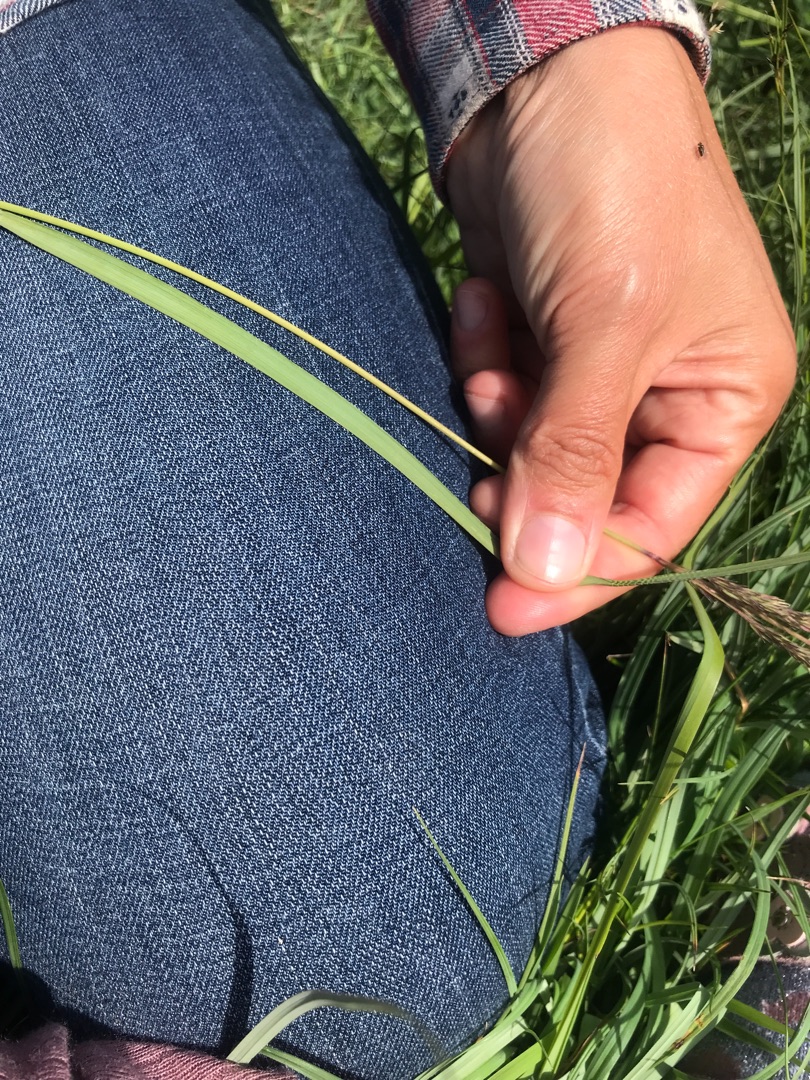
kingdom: Plantae
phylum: Tracheophyta
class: Liliopsida
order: Poales
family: Poaceae
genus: Calamagrostis
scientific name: Calamagrostis epigejos
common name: Bjerg-rørhvene
